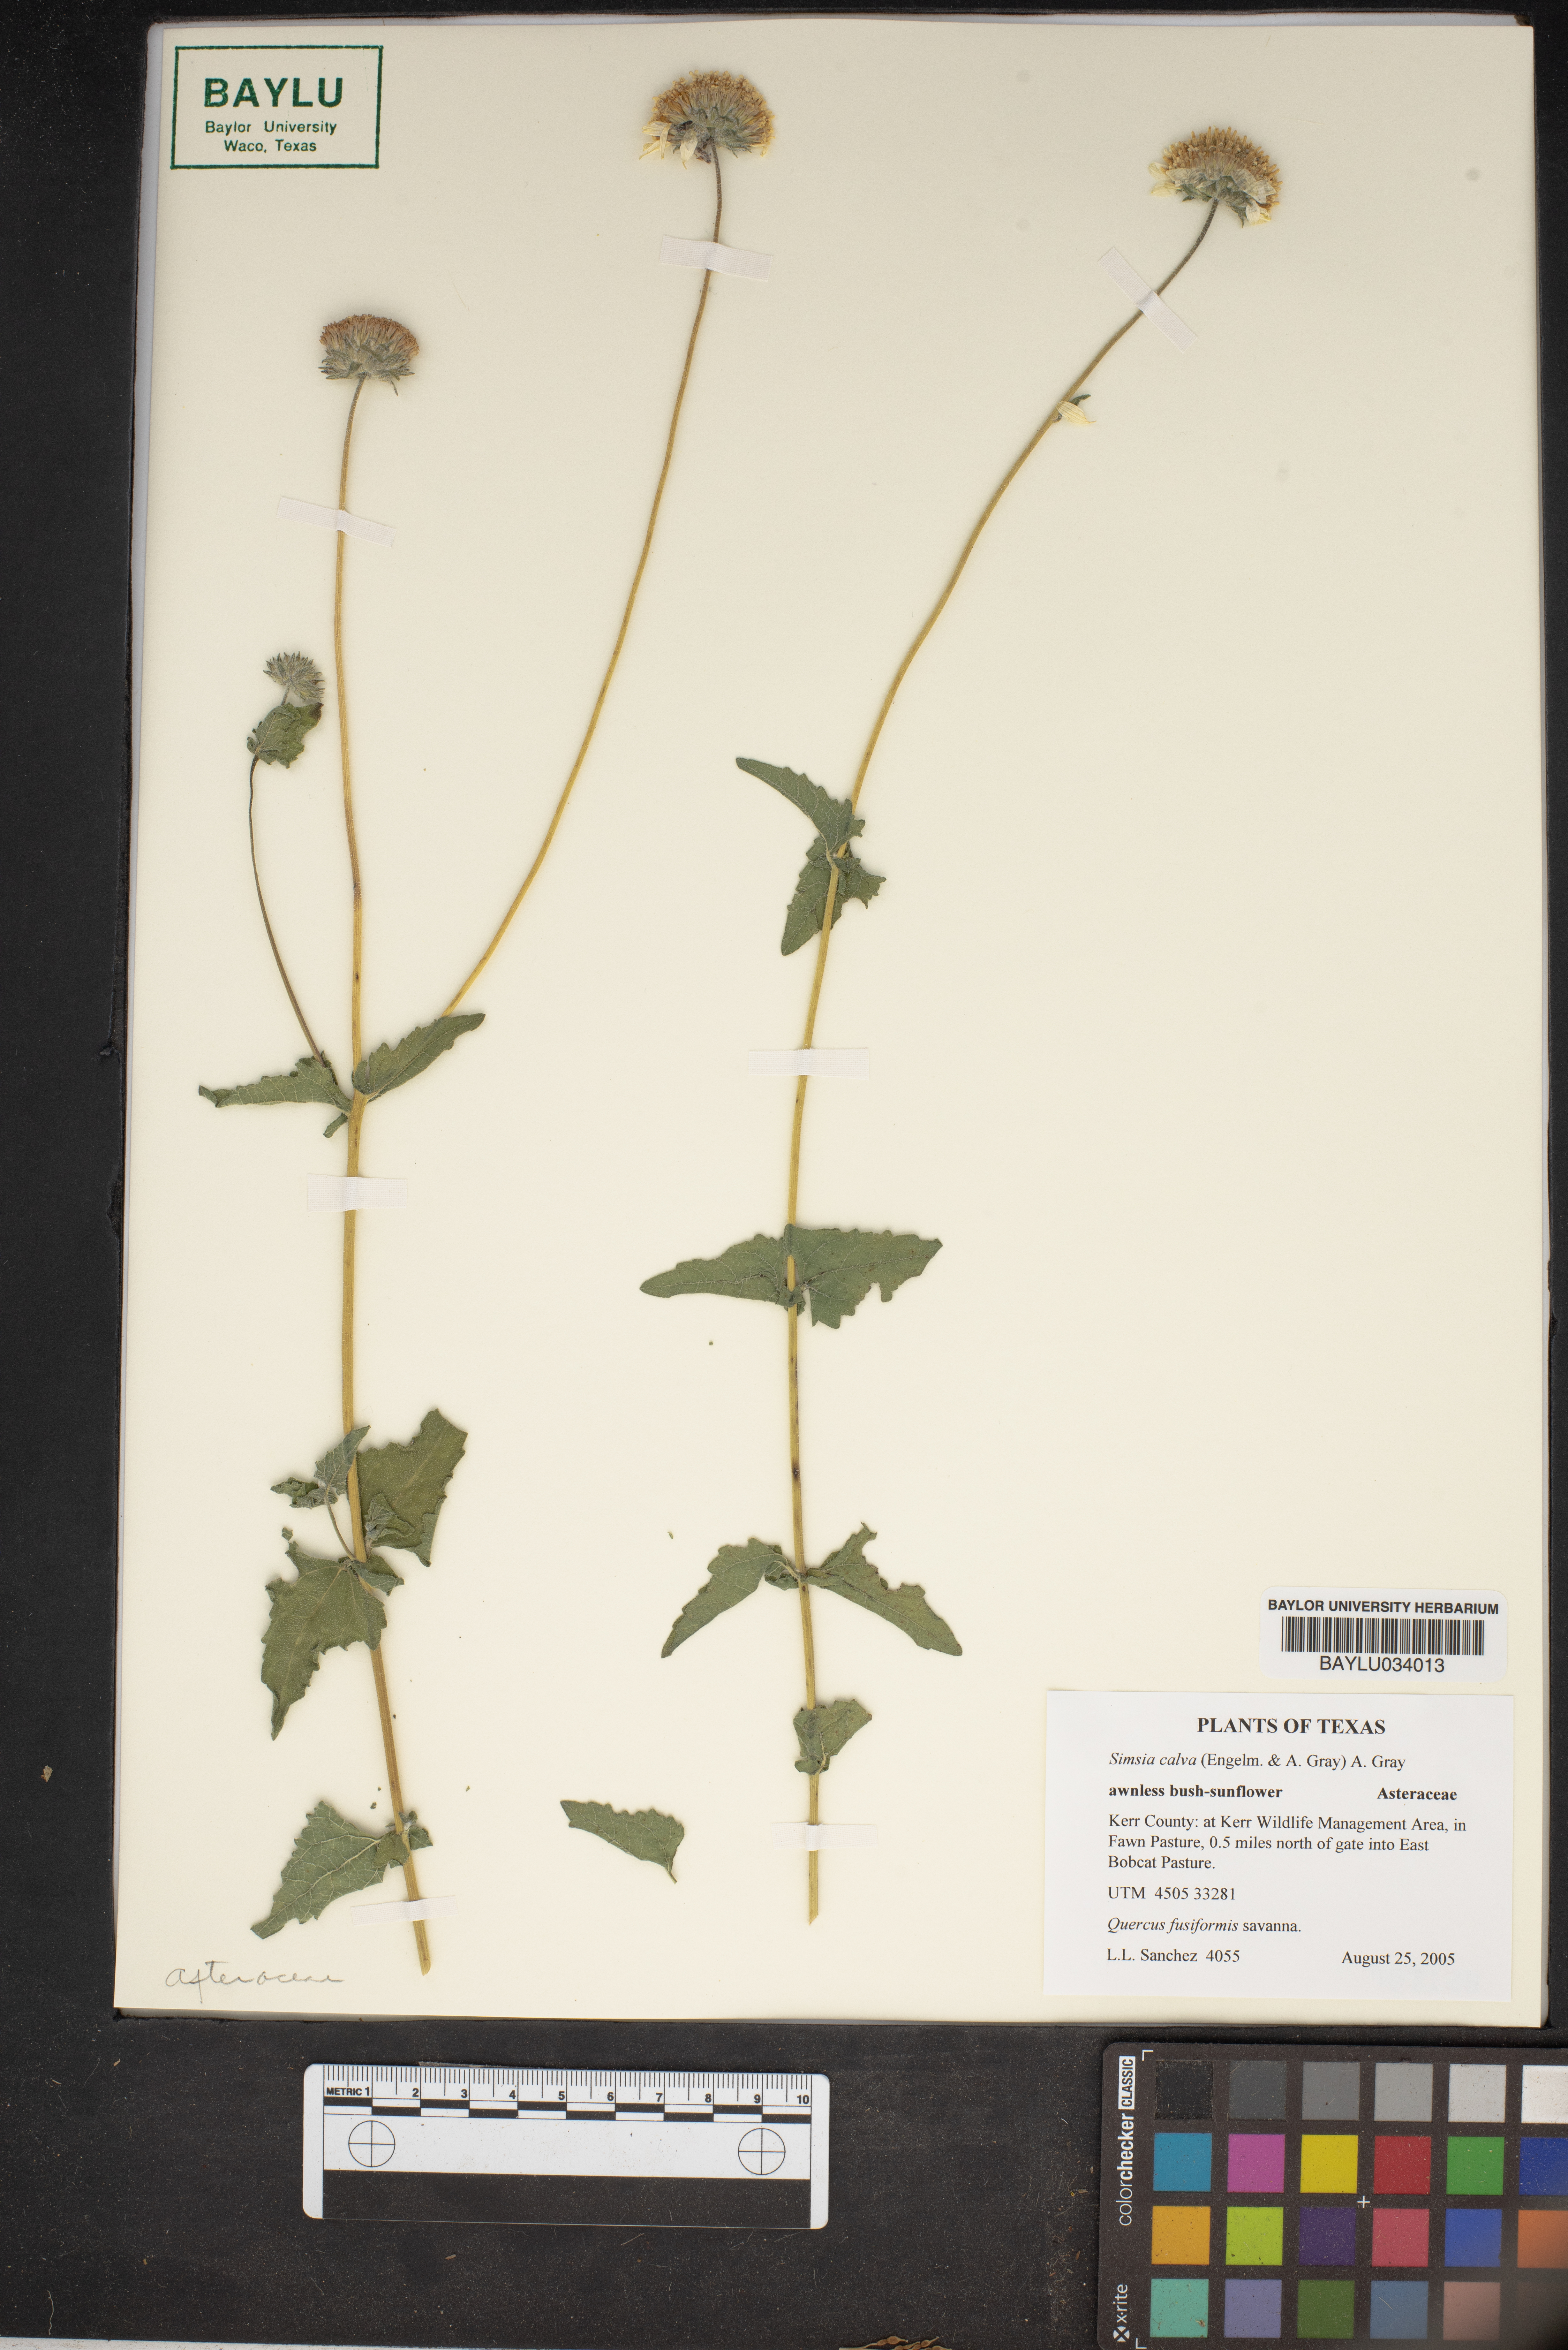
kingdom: Plantae
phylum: Tracheophyta
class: Magnoliopsida
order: Asterales
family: Asteraceae
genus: Simsia
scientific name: Simsia calva
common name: Awnless bush-sunflower
